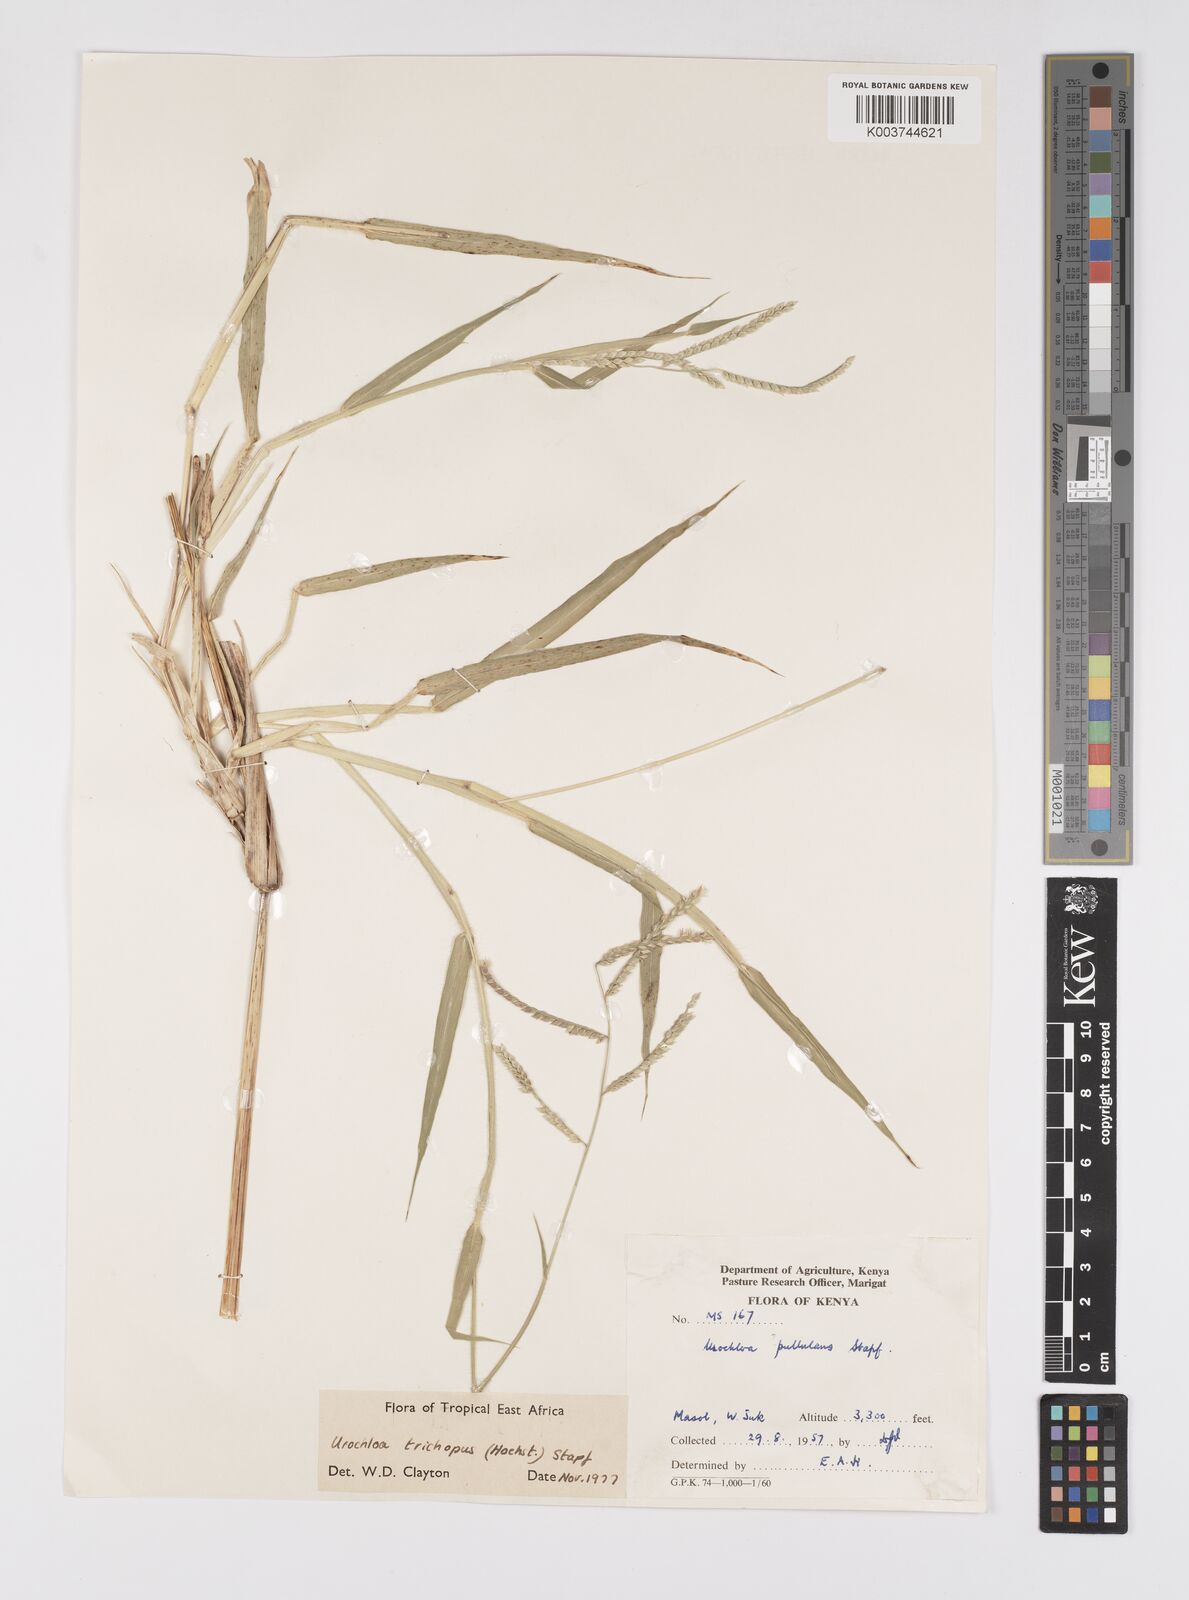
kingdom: Plantae
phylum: Tracheophyta
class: Liliopsida
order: Poales
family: Poaceae
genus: Urochloa
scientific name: Urochloa trichopus
